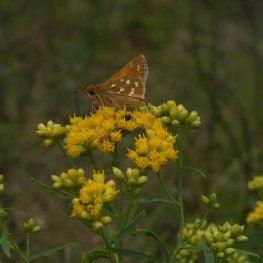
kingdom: Animalia
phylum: Arthropoda
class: Insecta
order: Lepidoptera
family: Hesperiidae
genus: Hesperia
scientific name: Hesperia comma
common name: Common Branded Skipper
